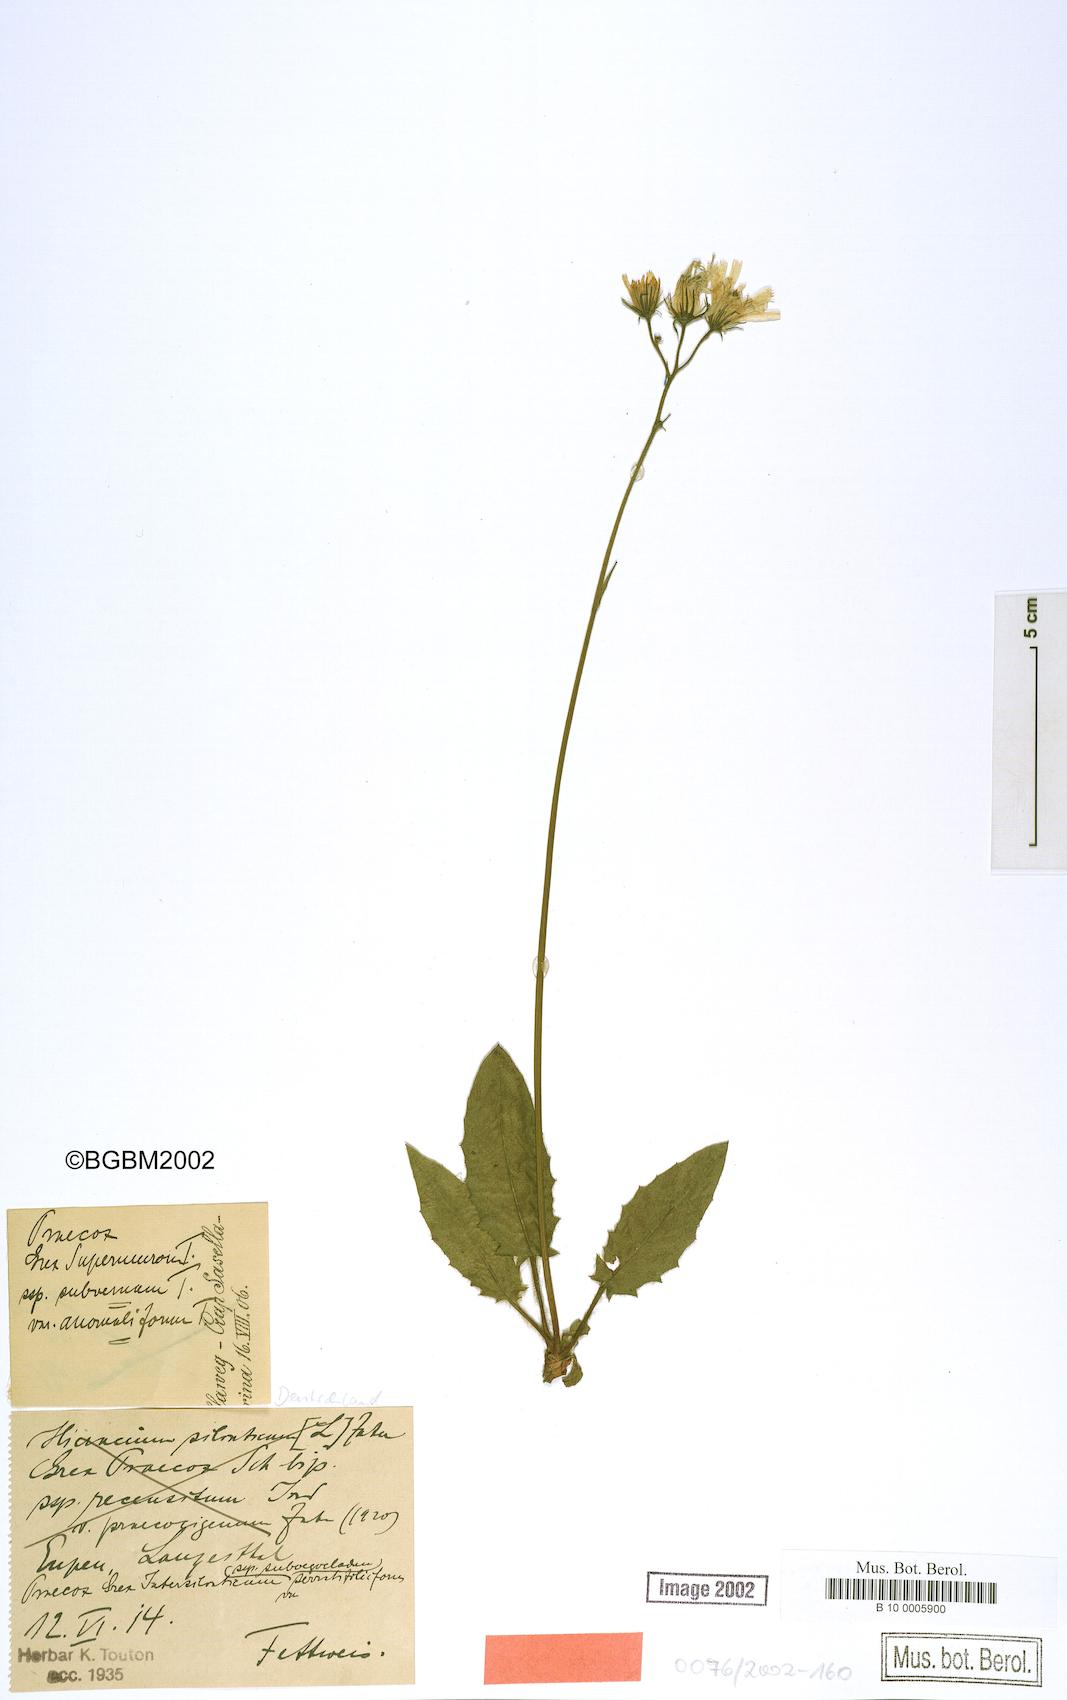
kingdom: Plantae
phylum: Tracheophyta
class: Magnoliopsida
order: Asterales
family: Asteraceae
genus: Hieracium
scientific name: Hieracium praecox
